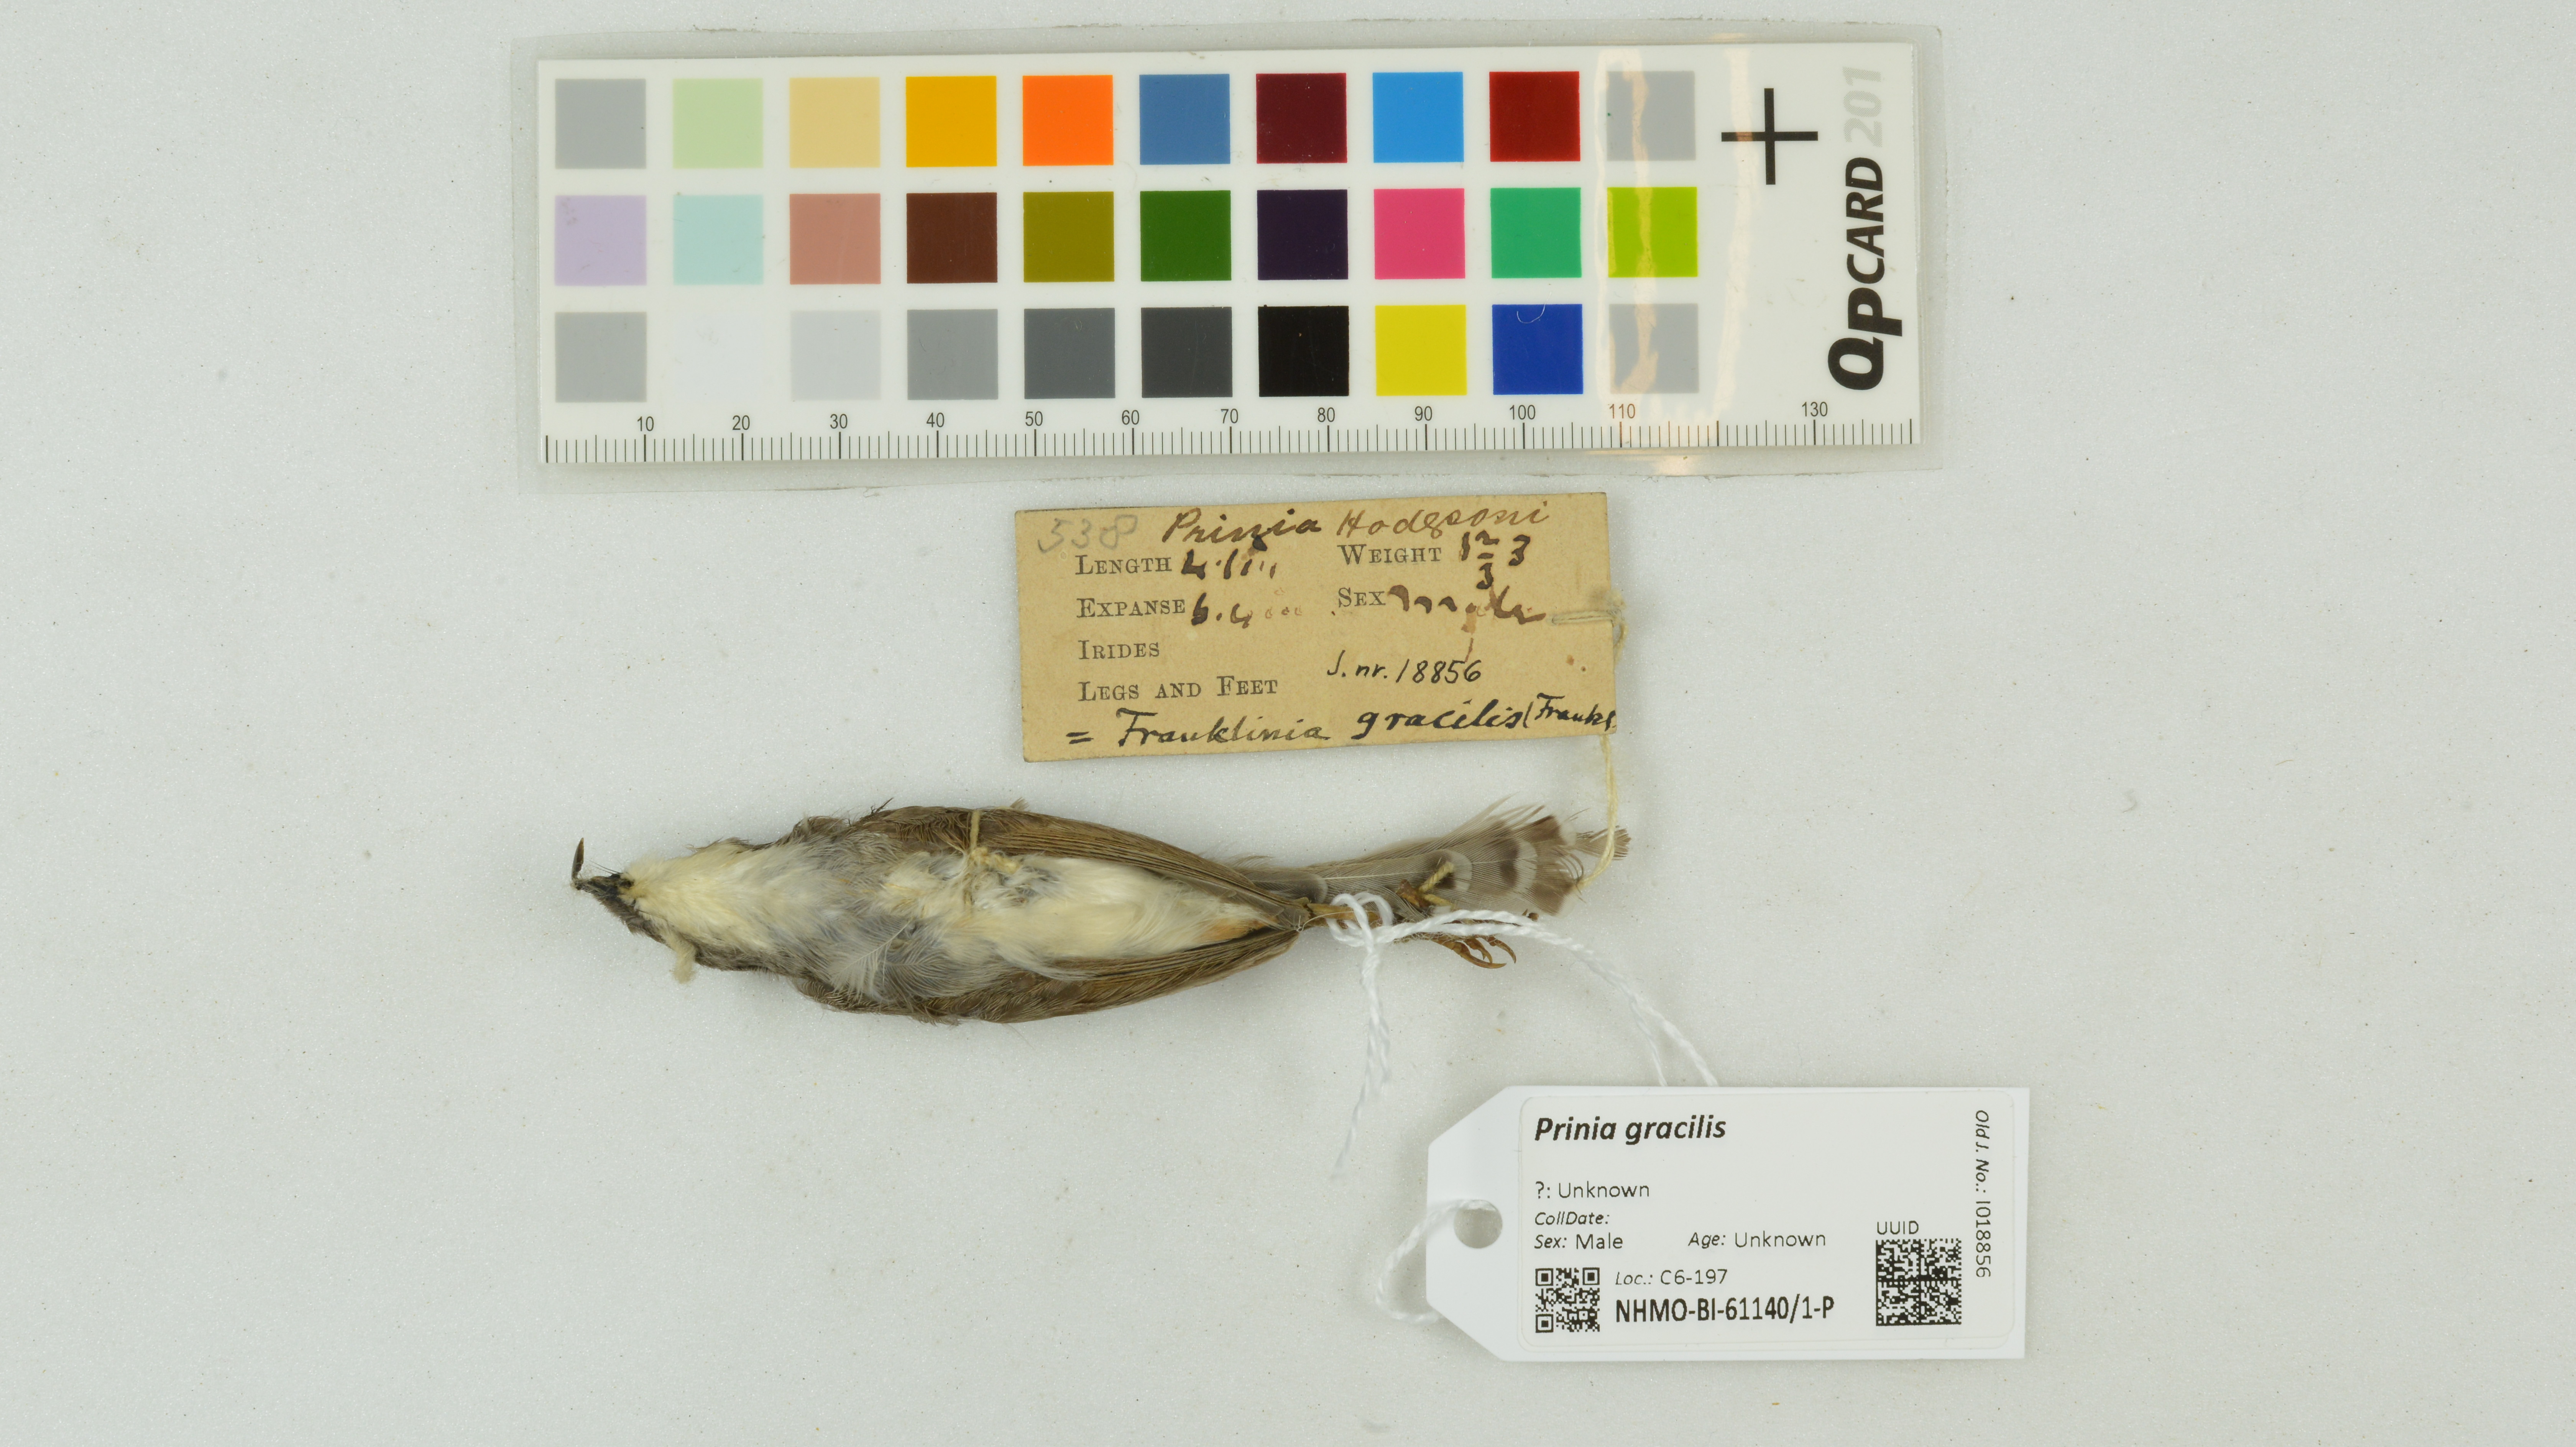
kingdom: Animalia
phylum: Chordata
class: Aves
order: Passeriformes
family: Cisticolidae
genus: Prinia
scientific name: Prinia gracilis
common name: Graceful prinia
